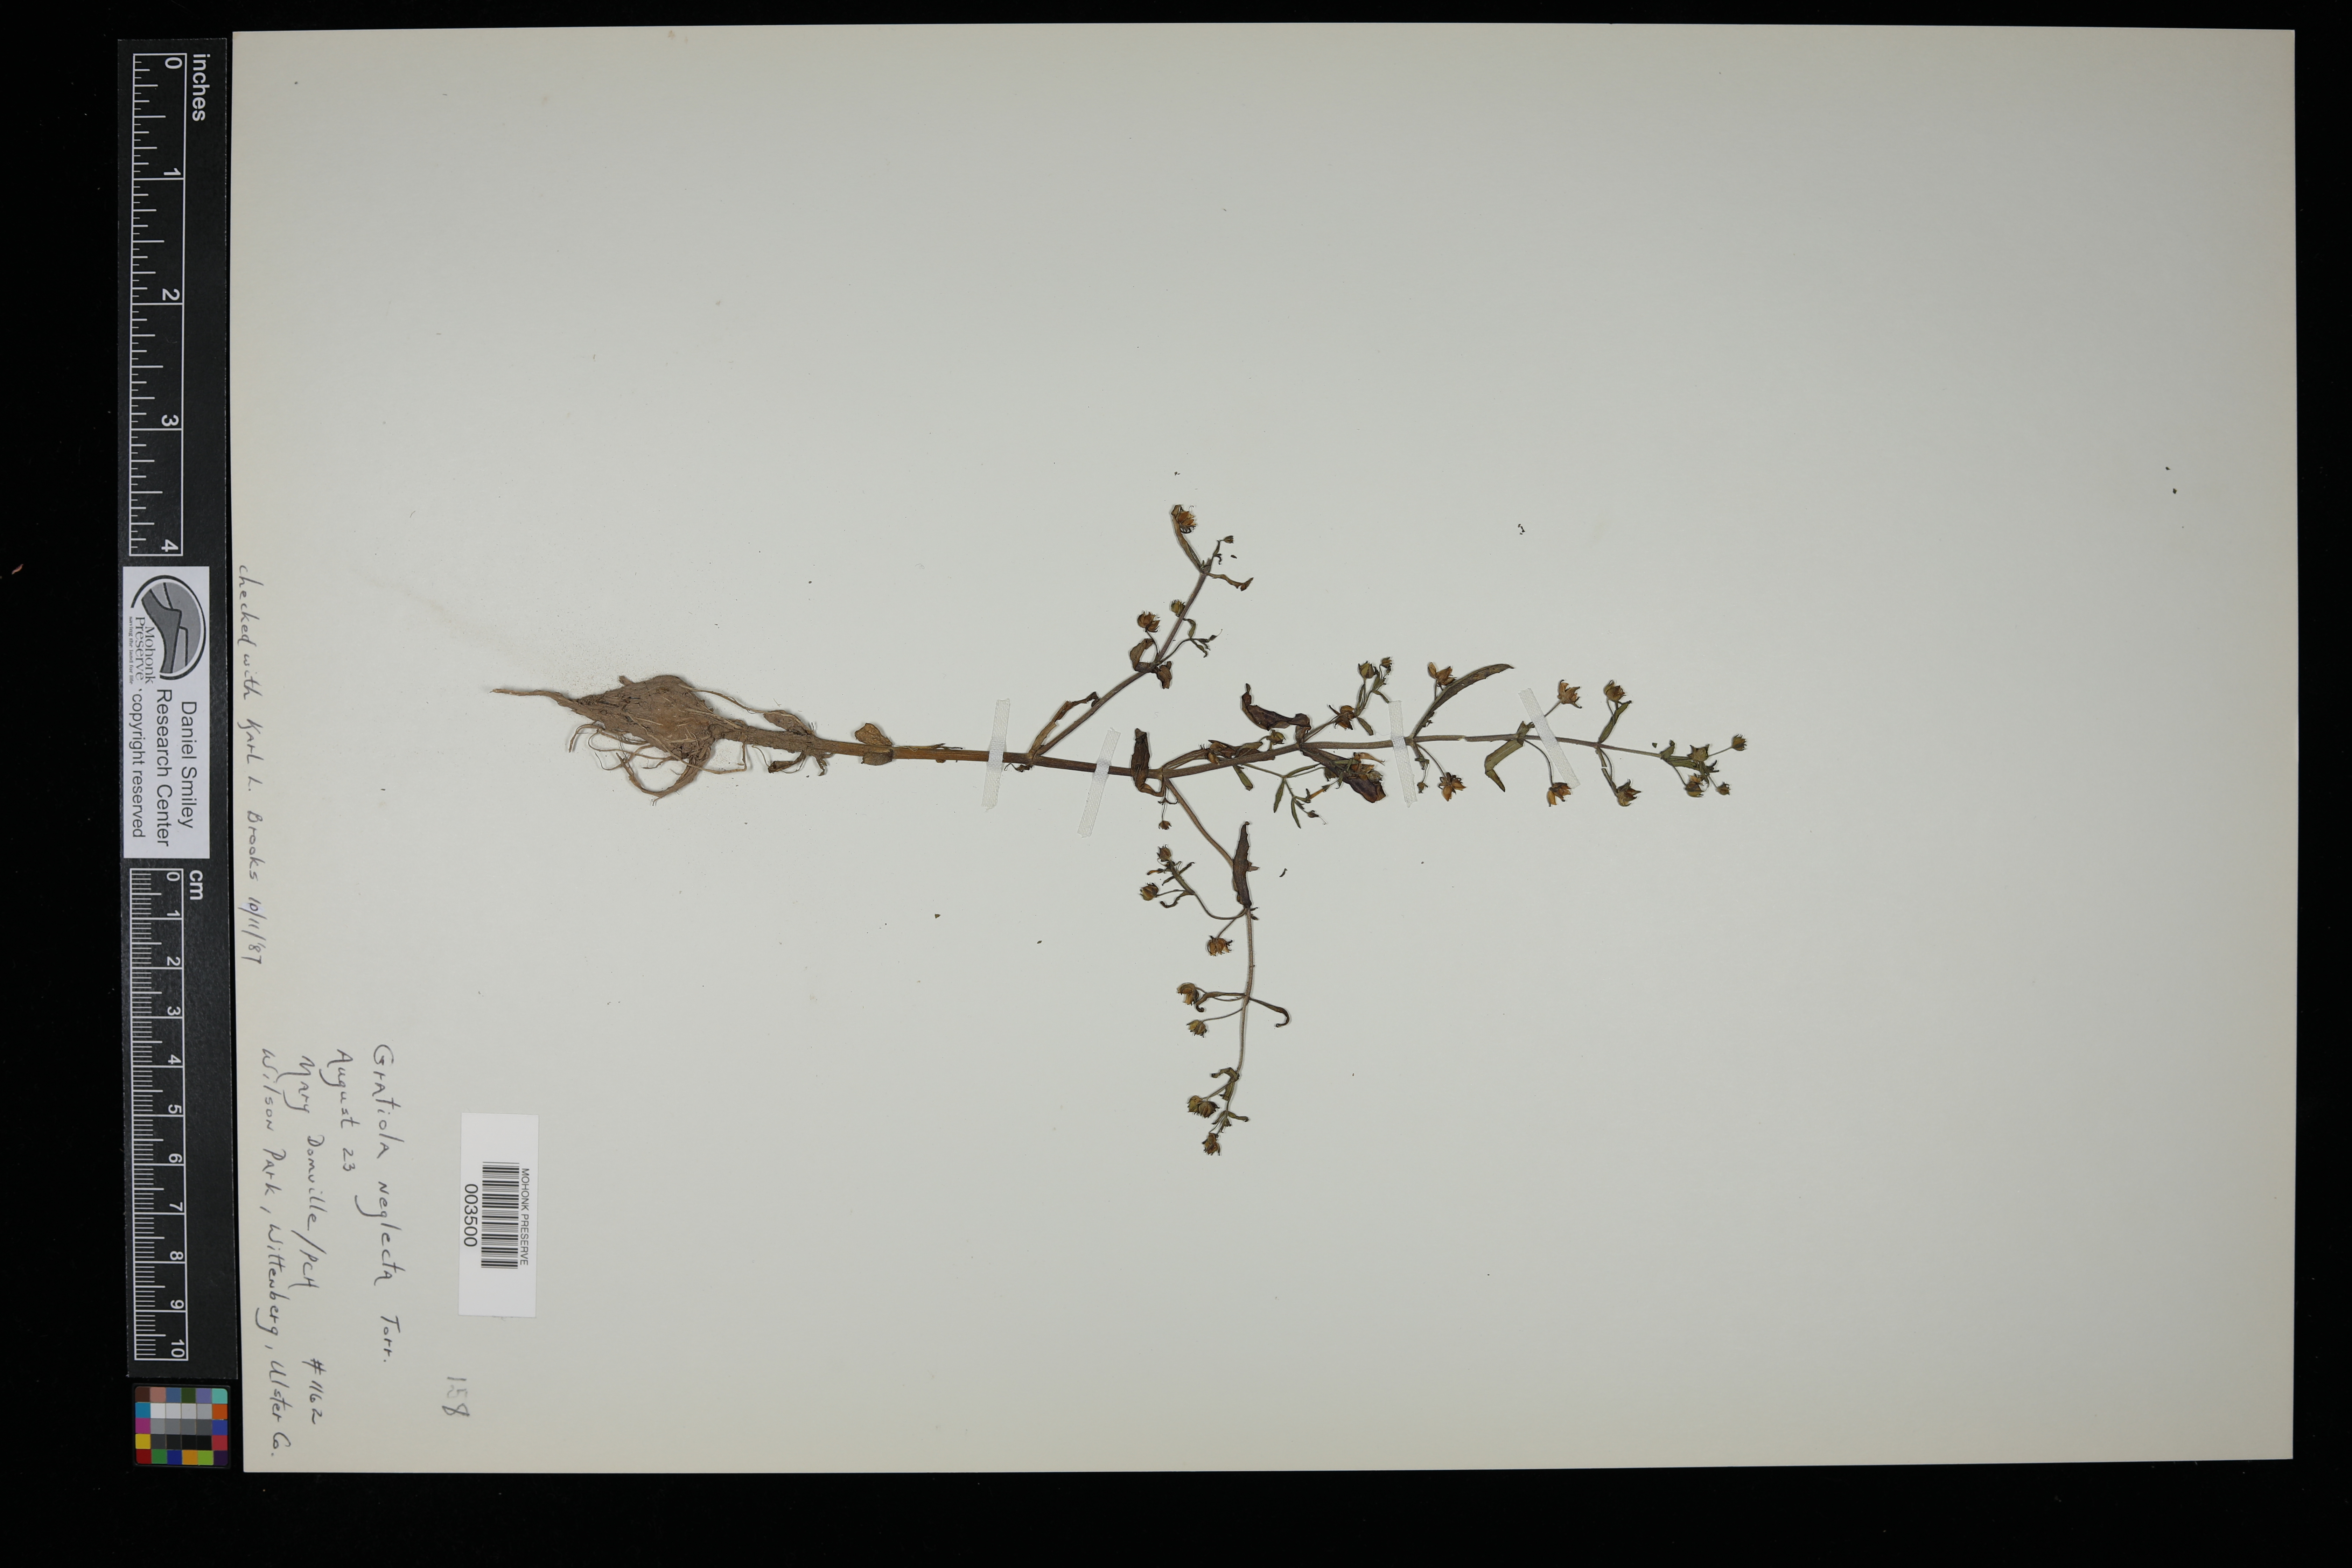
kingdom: Plantae
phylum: Tracheophyta
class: Magnoliopsida
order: Lamiales
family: Plantaginaceae
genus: Gratiola
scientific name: Gratiola neglecta
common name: American hedge-hyssop
